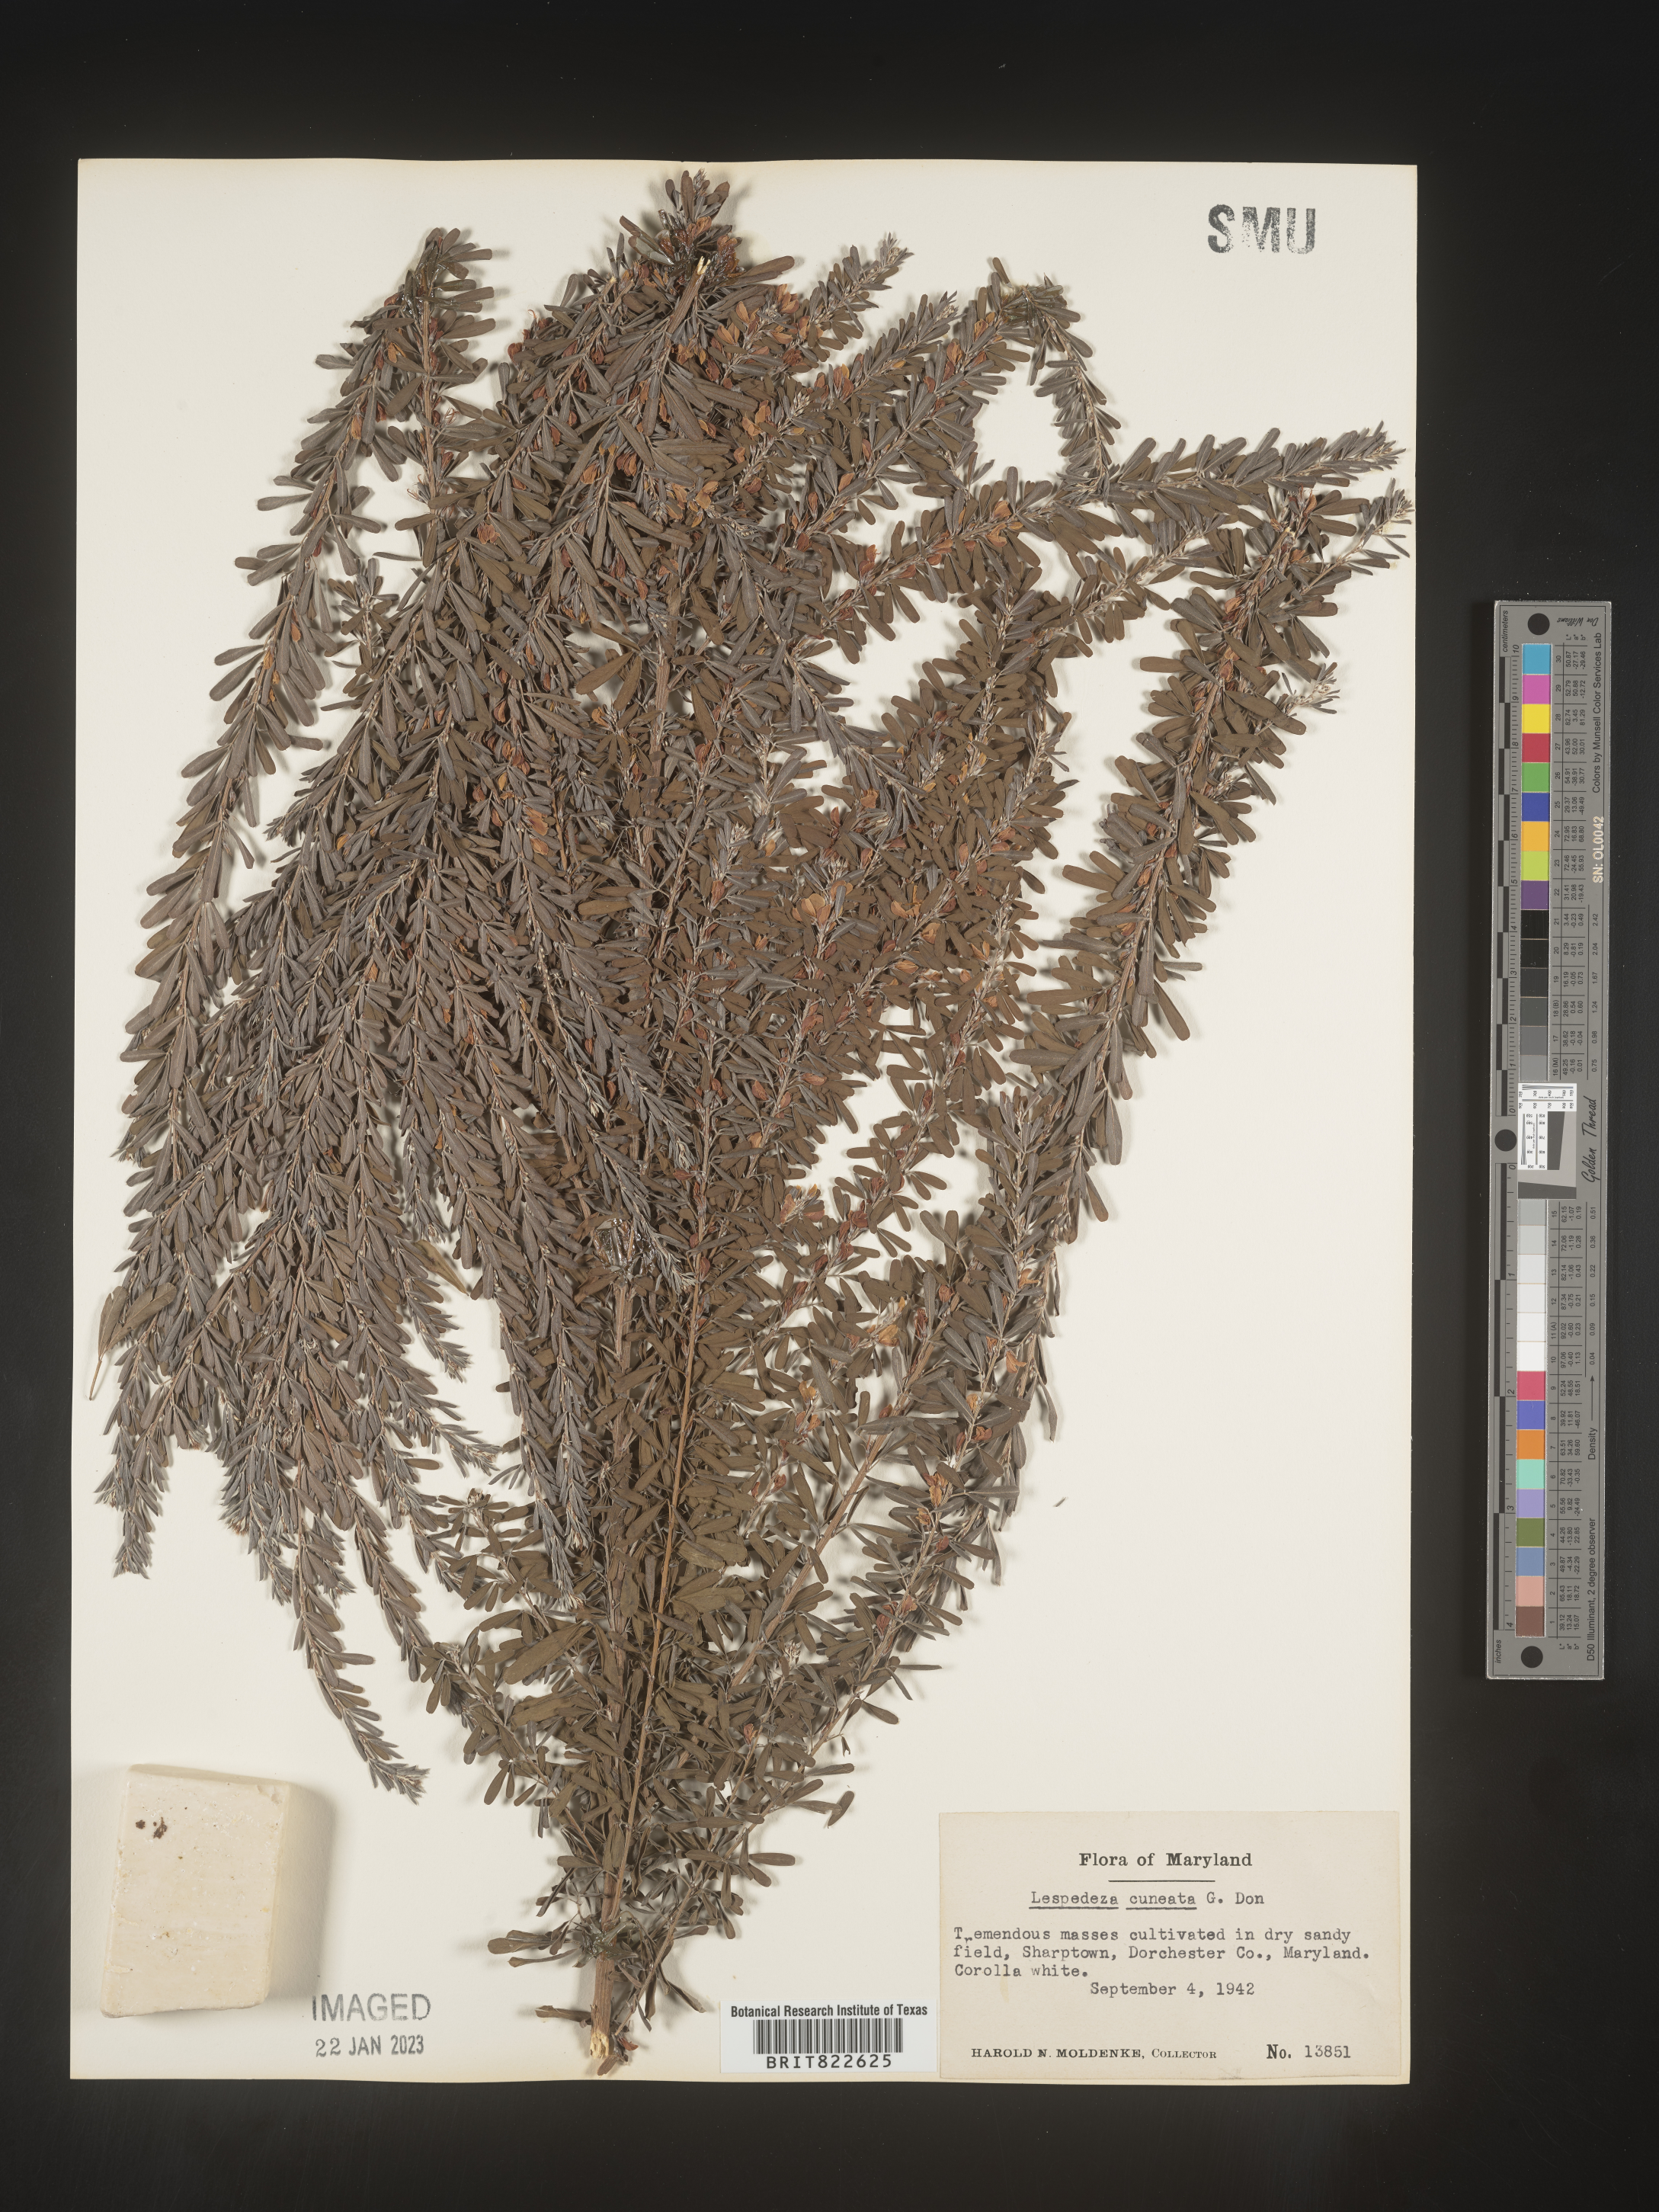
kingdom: Plantae
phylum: Tracheophyta
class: Magnoliopsida
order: Fabales
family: Fabaceae
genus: Lespedeza
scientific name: Lespedeza cuneata
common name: Chinese bush-clover
